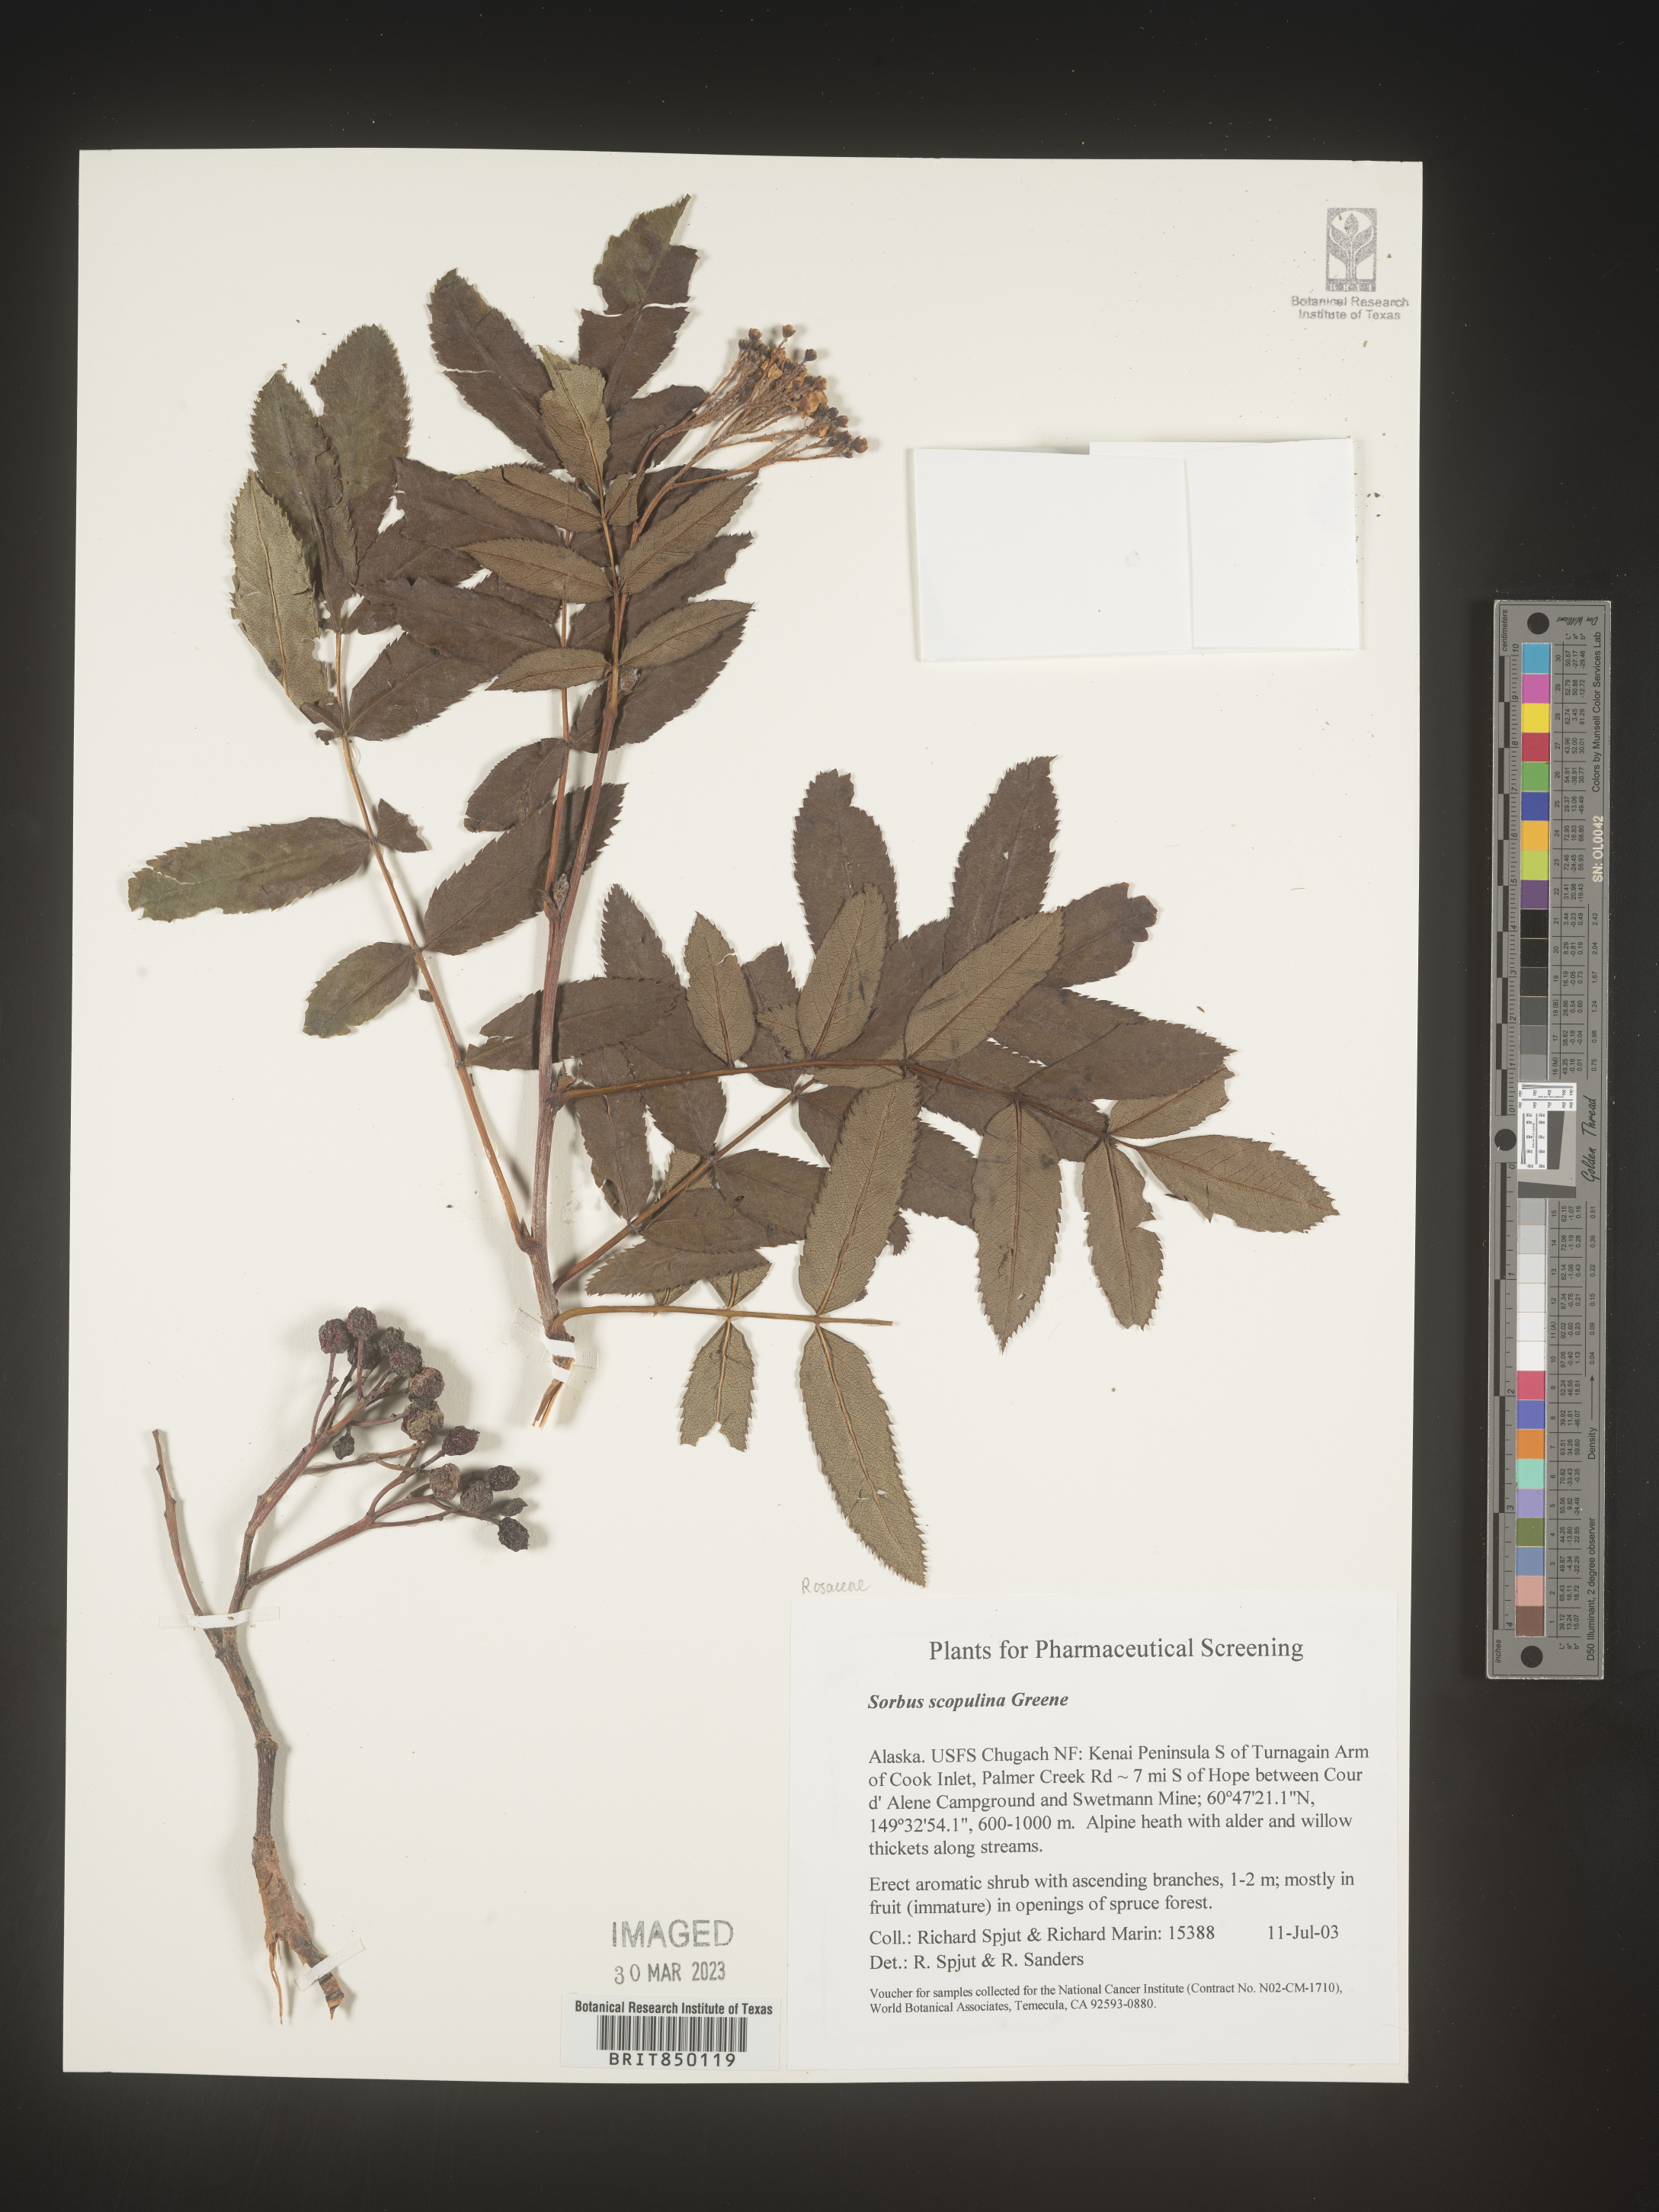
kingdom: Plantae
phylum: Tracheophyta
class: Magnoliopsida
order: Rosales
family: Rosaceae
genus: Sorbus
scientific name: Sorbus scopulina
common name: Greene's mountain-ash
